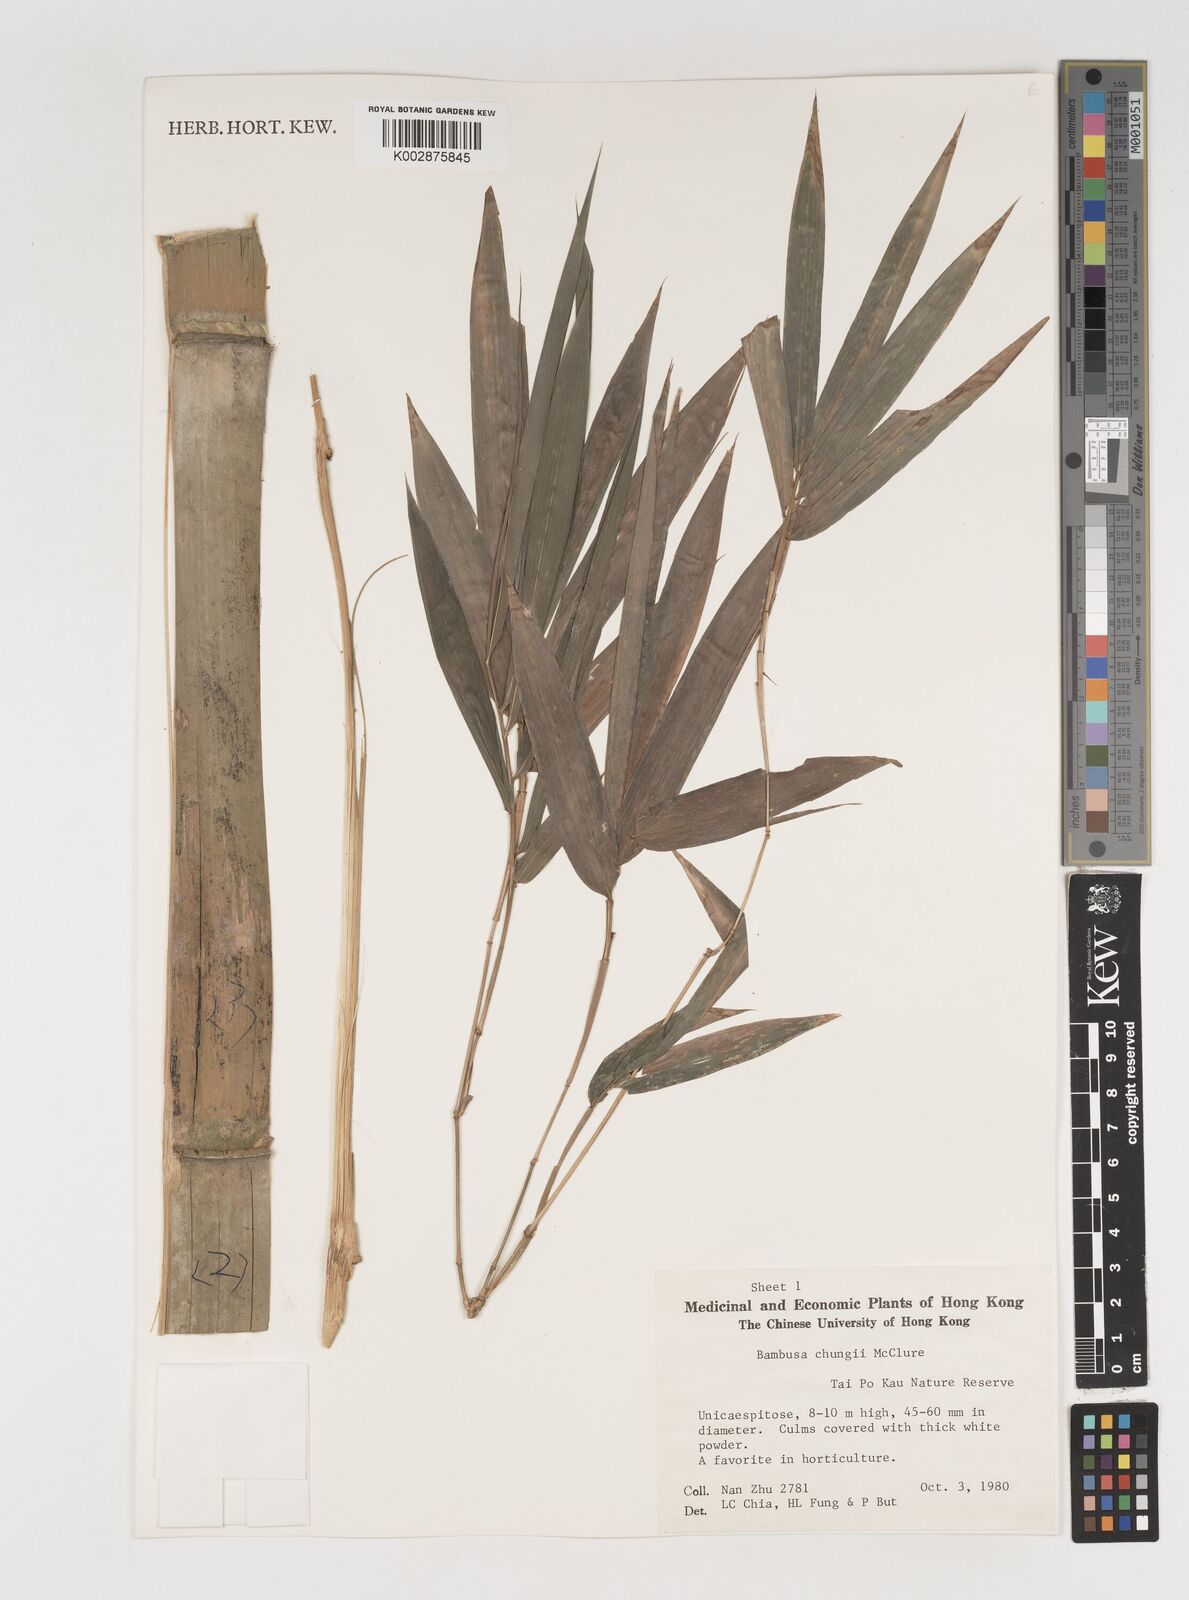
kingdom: Plantae
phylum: Tracheophyta
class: Liliopsida
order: Poales
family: Poaceae
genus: Bambusa
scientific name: Bambusa chungii
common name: White-powder bamboo
